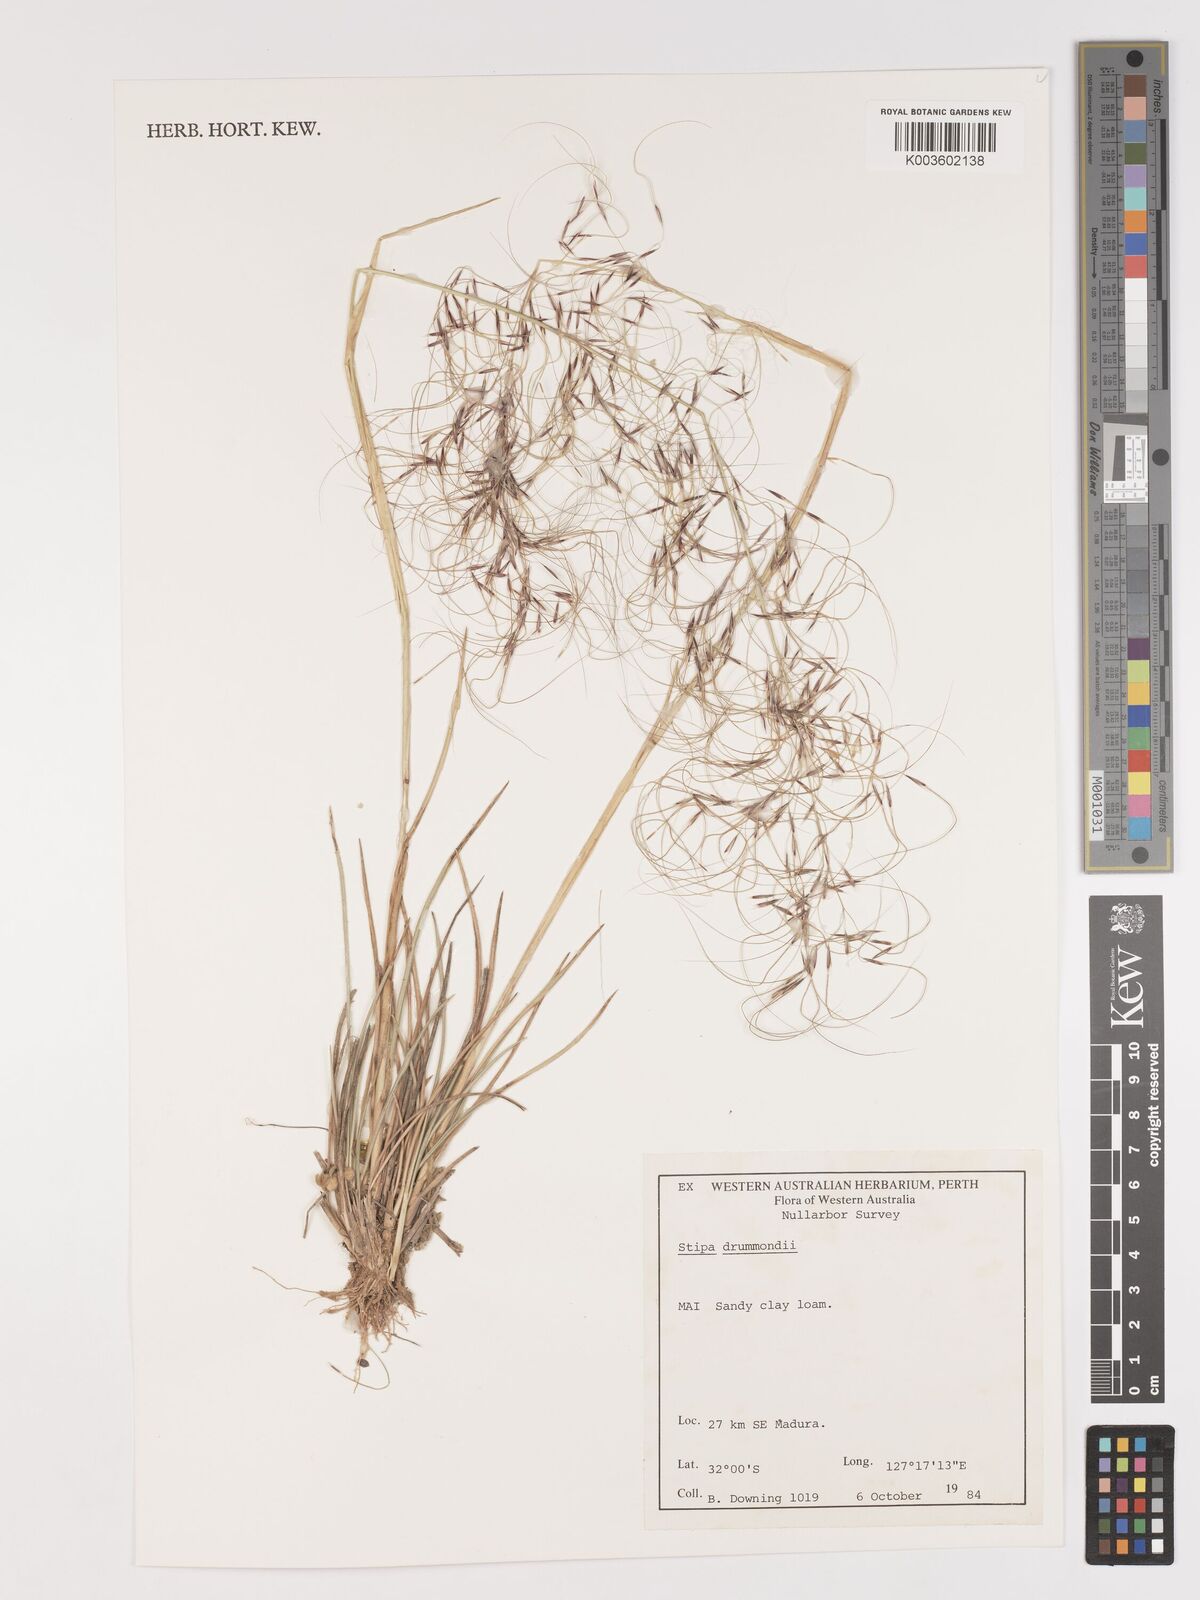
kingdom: Plantae
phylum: Tracheophyta
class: Liliopsida
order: Poales
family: Poaceae
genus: Austrostipa
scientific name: Austrostipa drummondii
